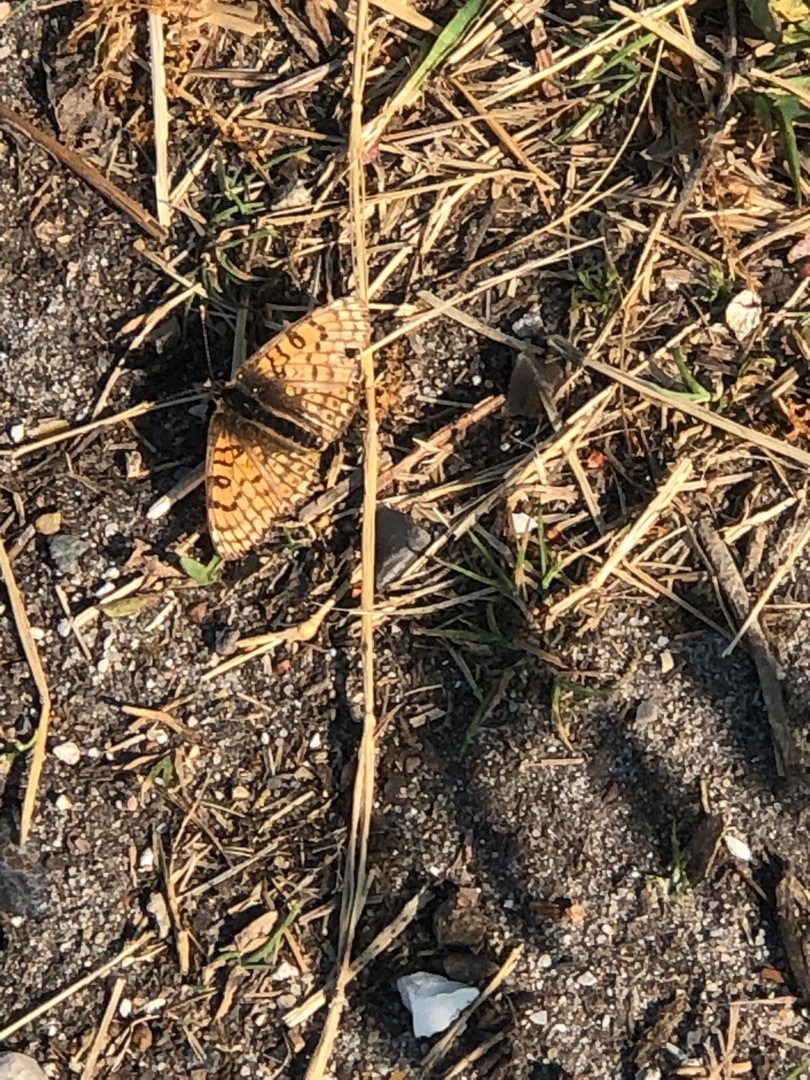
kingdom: Animalia
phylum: Arthropoda
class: Insecta
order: Lepidoptera
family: Nymphalidae
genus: Melitaea
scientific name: Melitaea cinxia
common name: Okkergul pletvinge
